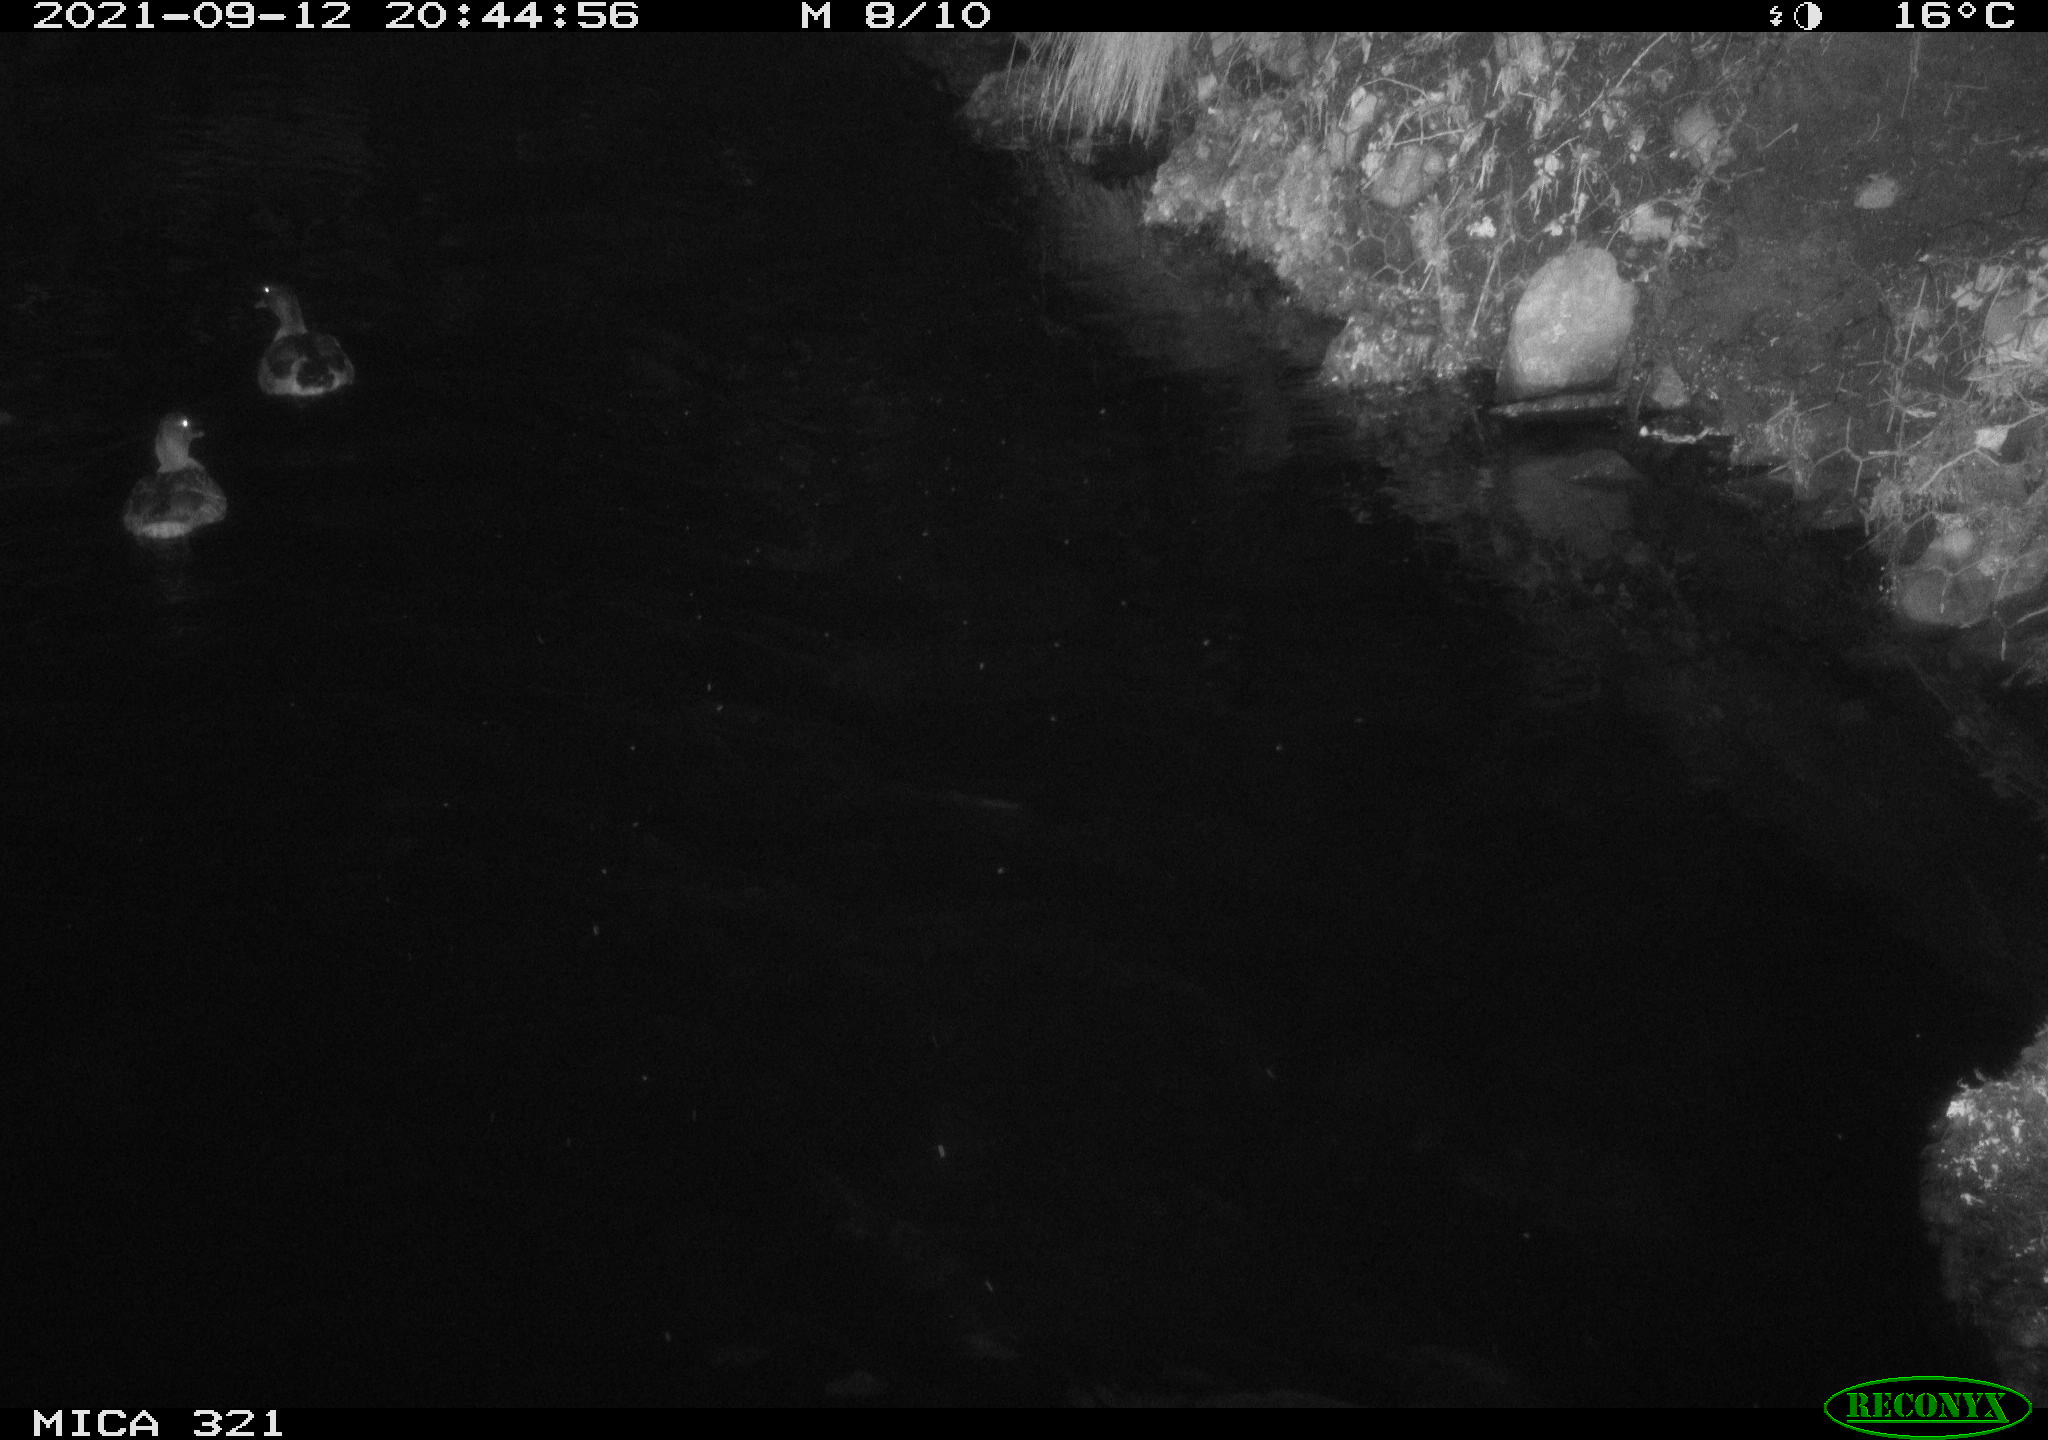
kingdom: Animalia
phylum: Chordata
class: Aves
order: Anseriformes
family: Anatidae
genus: Anas
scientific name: Anas platyrhynchos
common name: Mallard
